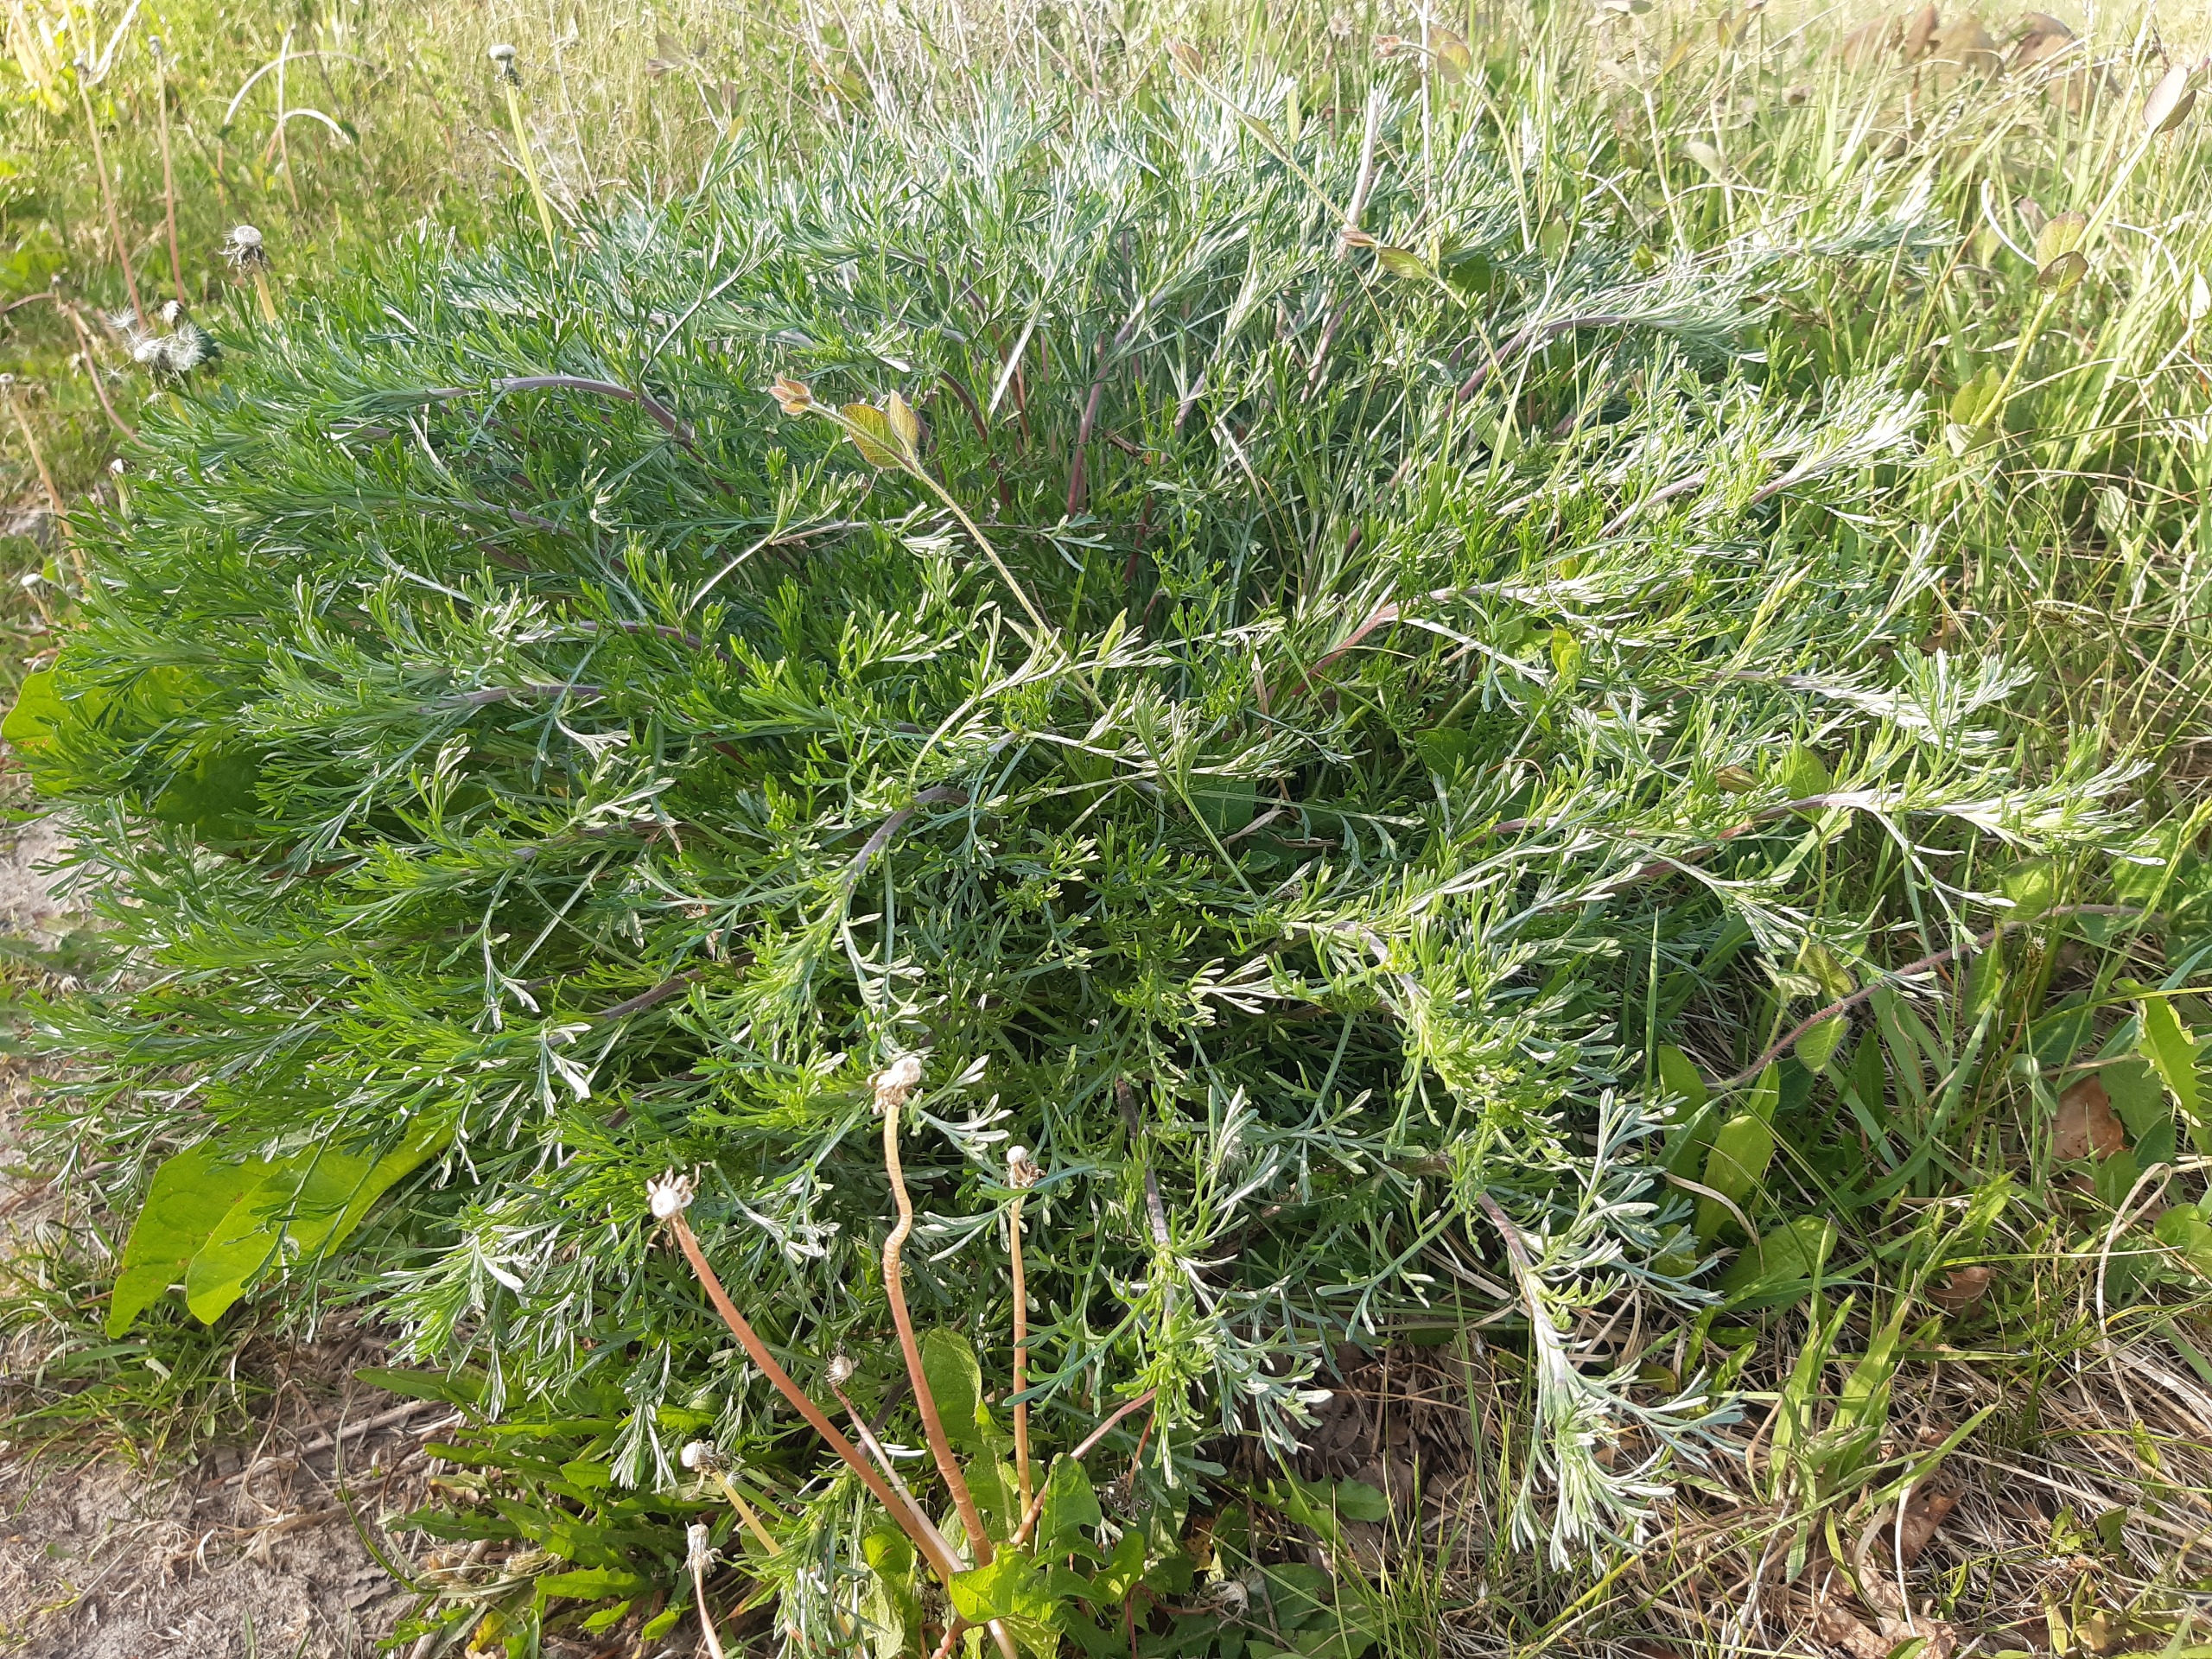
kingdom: Plantae
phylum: Tracheophyta
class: Magnoliopsida
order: Asterales
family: Asteraceae
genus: Artemisia
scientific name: Artemisia campestris
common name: Mark-bynke
